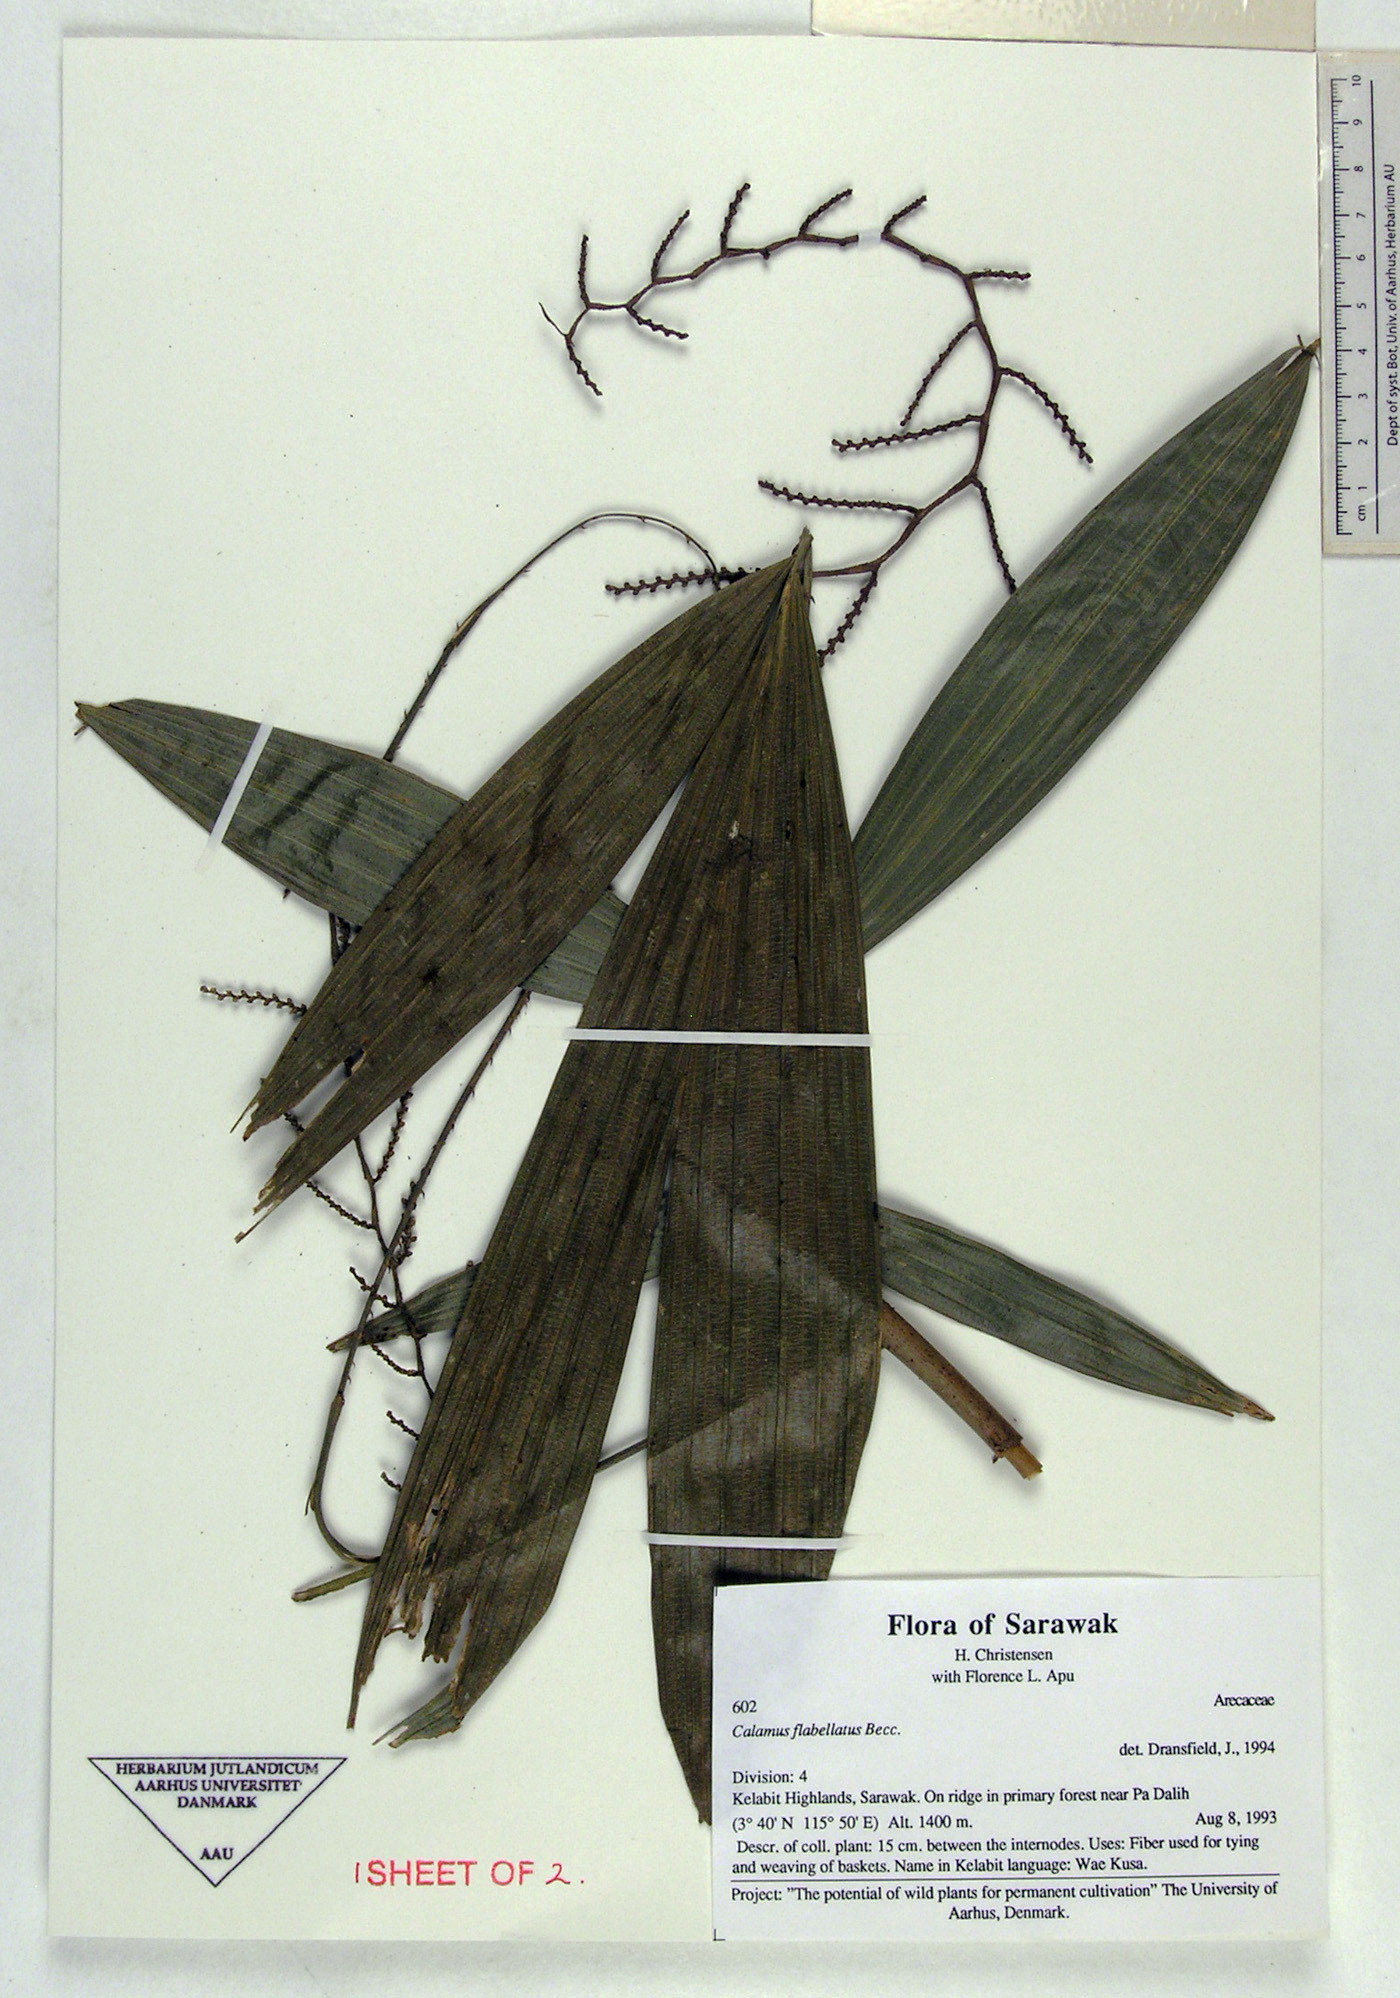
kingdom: Plantae
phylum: Tracheophyta
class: Liliopsida
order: Arecales
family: Arecaceae
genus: Calamus
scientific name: Calamus flabellatus
